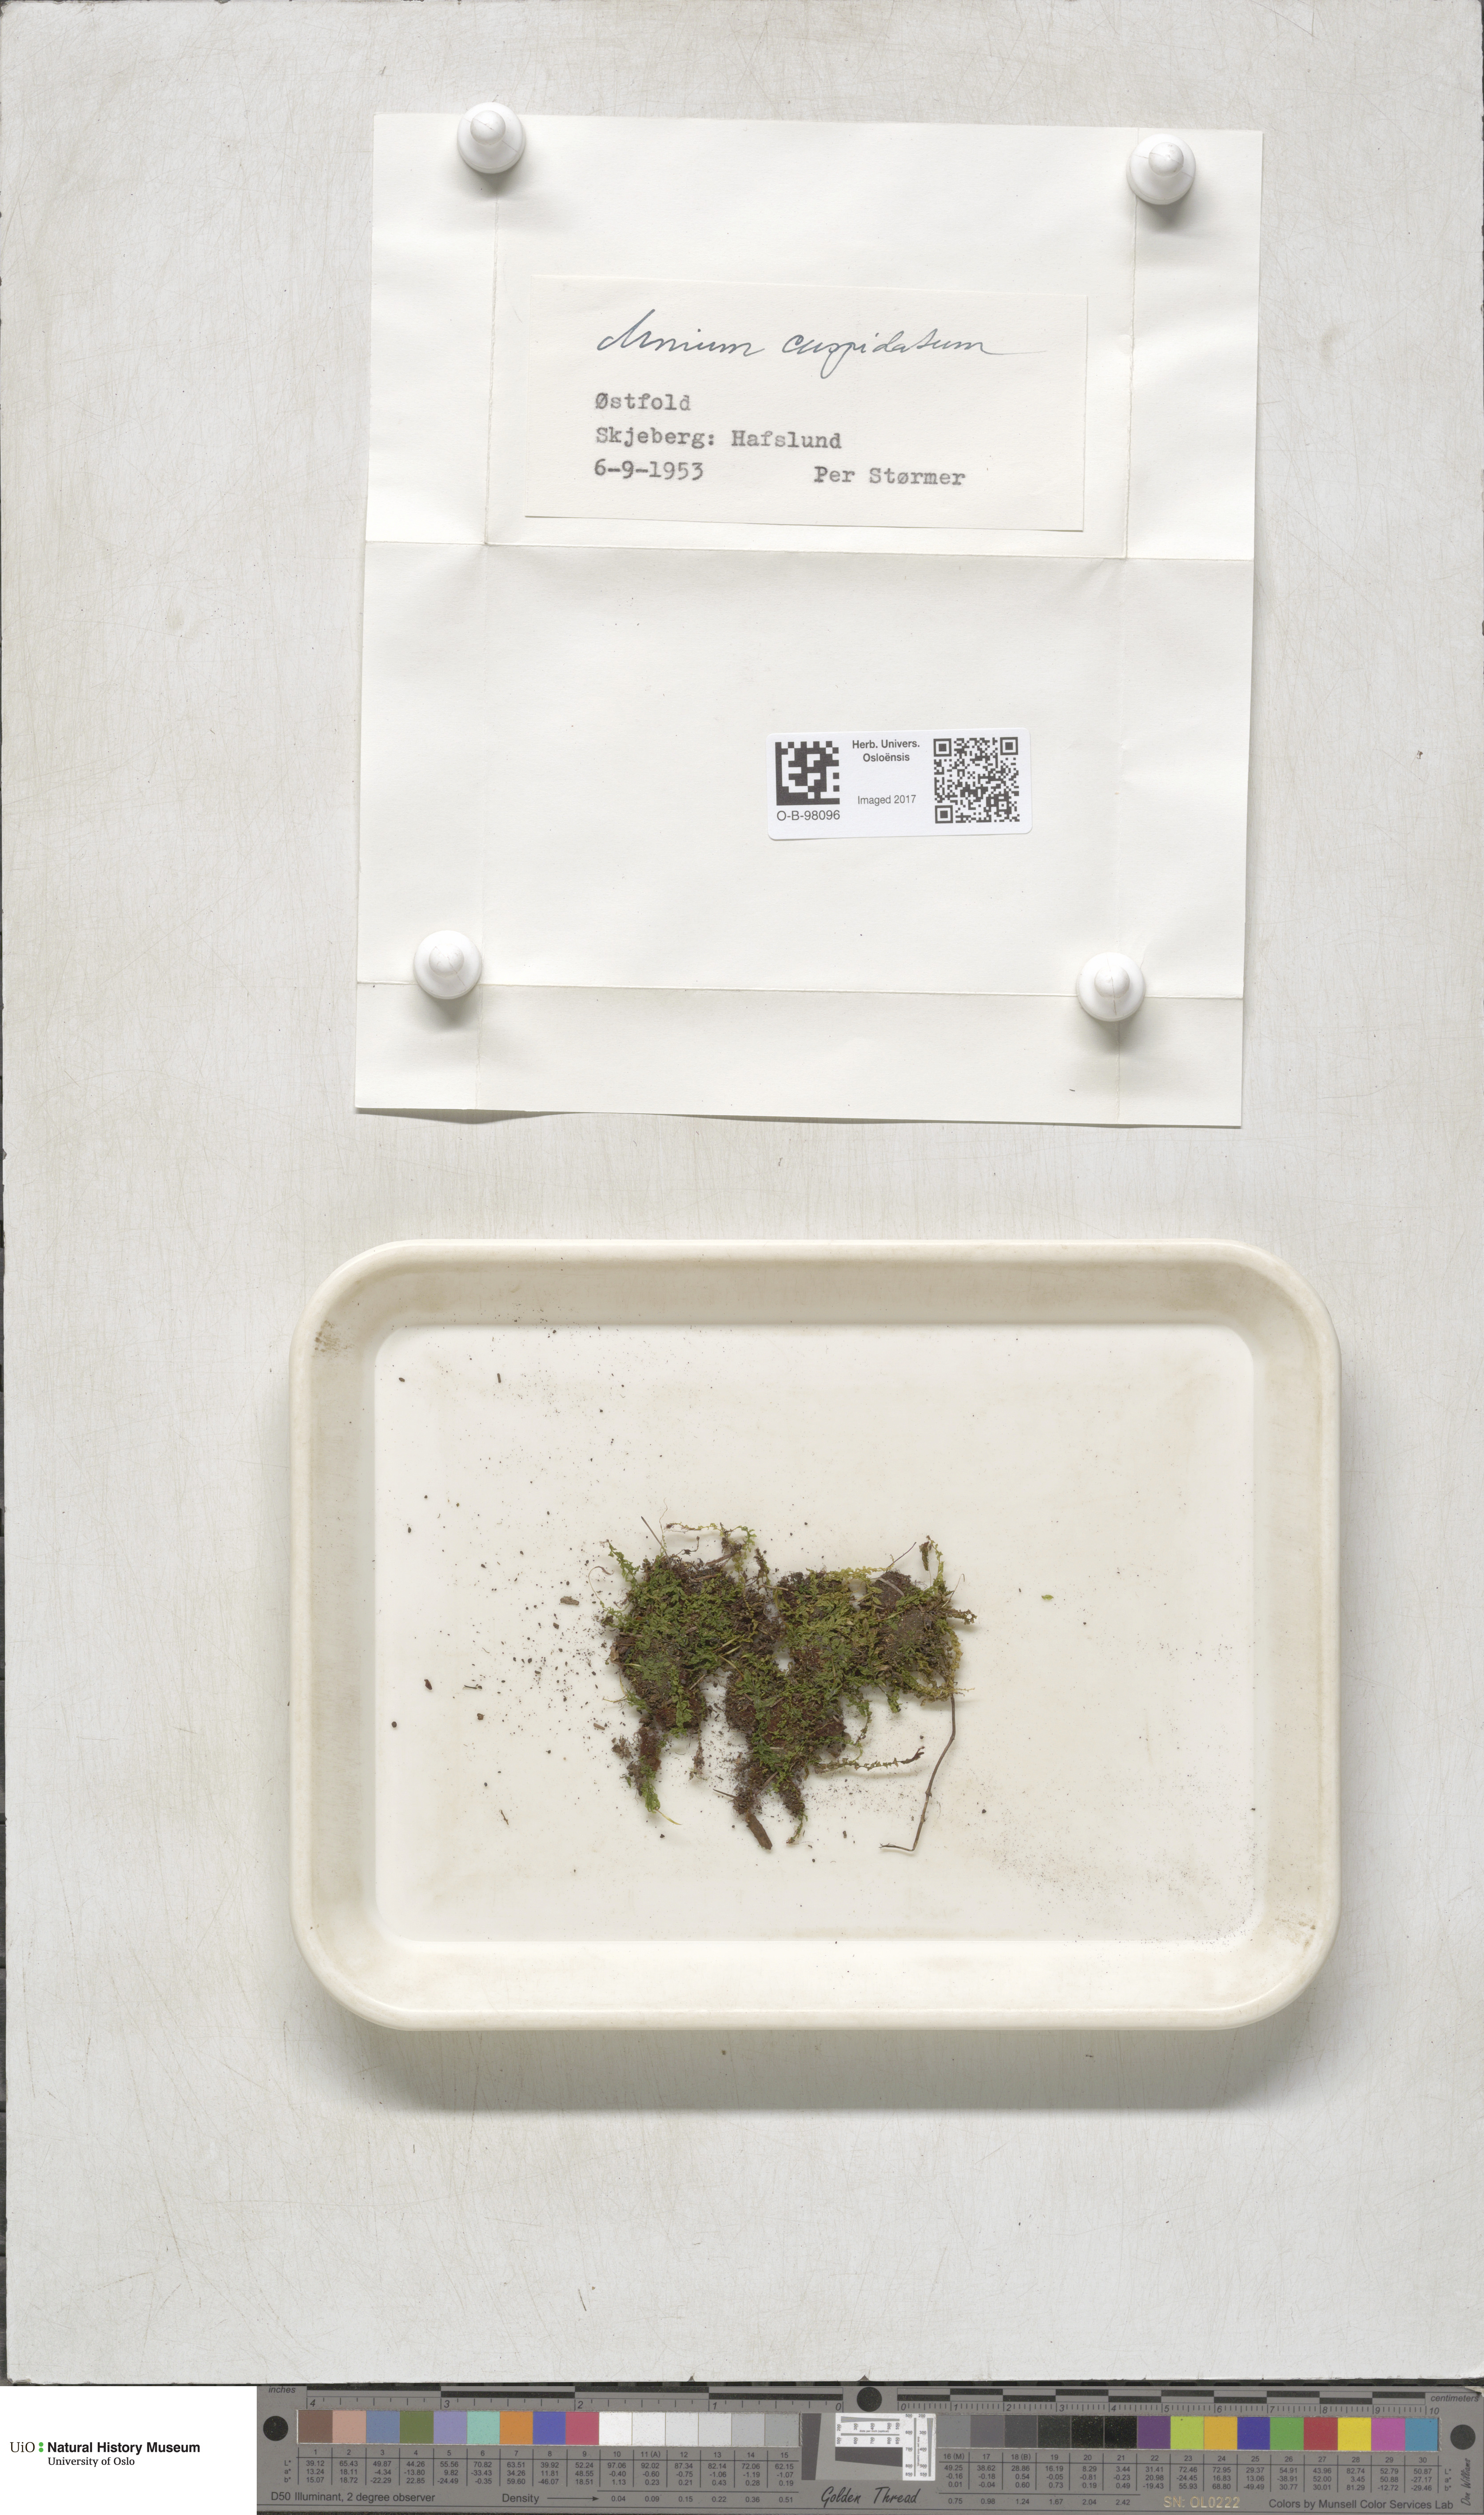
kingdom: Plantae
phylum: Bryophyta
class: Bryopsida
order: Bryales
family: Mniaceae
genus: Plagiomnium
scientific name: Plagiomnium cuspidatum
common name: Woodsy leafy moss
